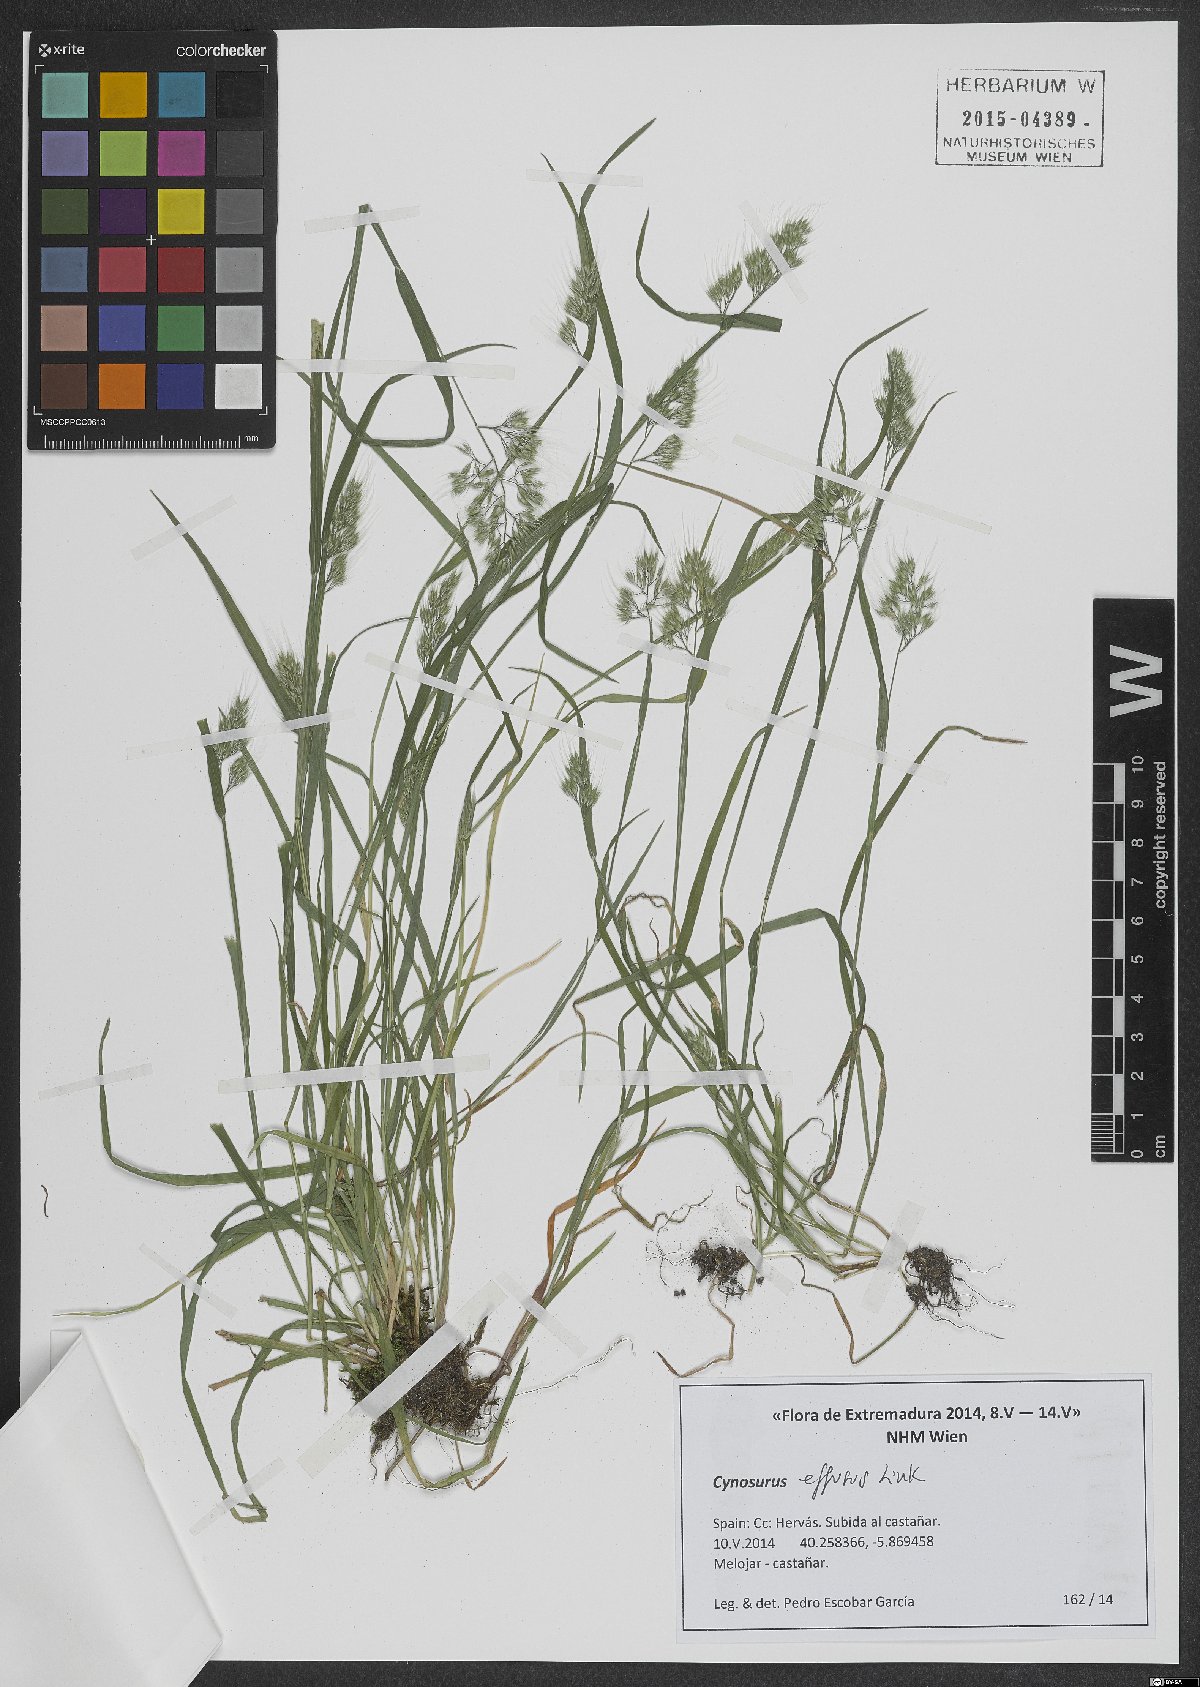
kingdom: Plantae
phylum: Tracheophyta
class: Liliopsida
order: Poales
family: Poaceae
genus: Cynosurus
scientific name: Cynosurus effusus
